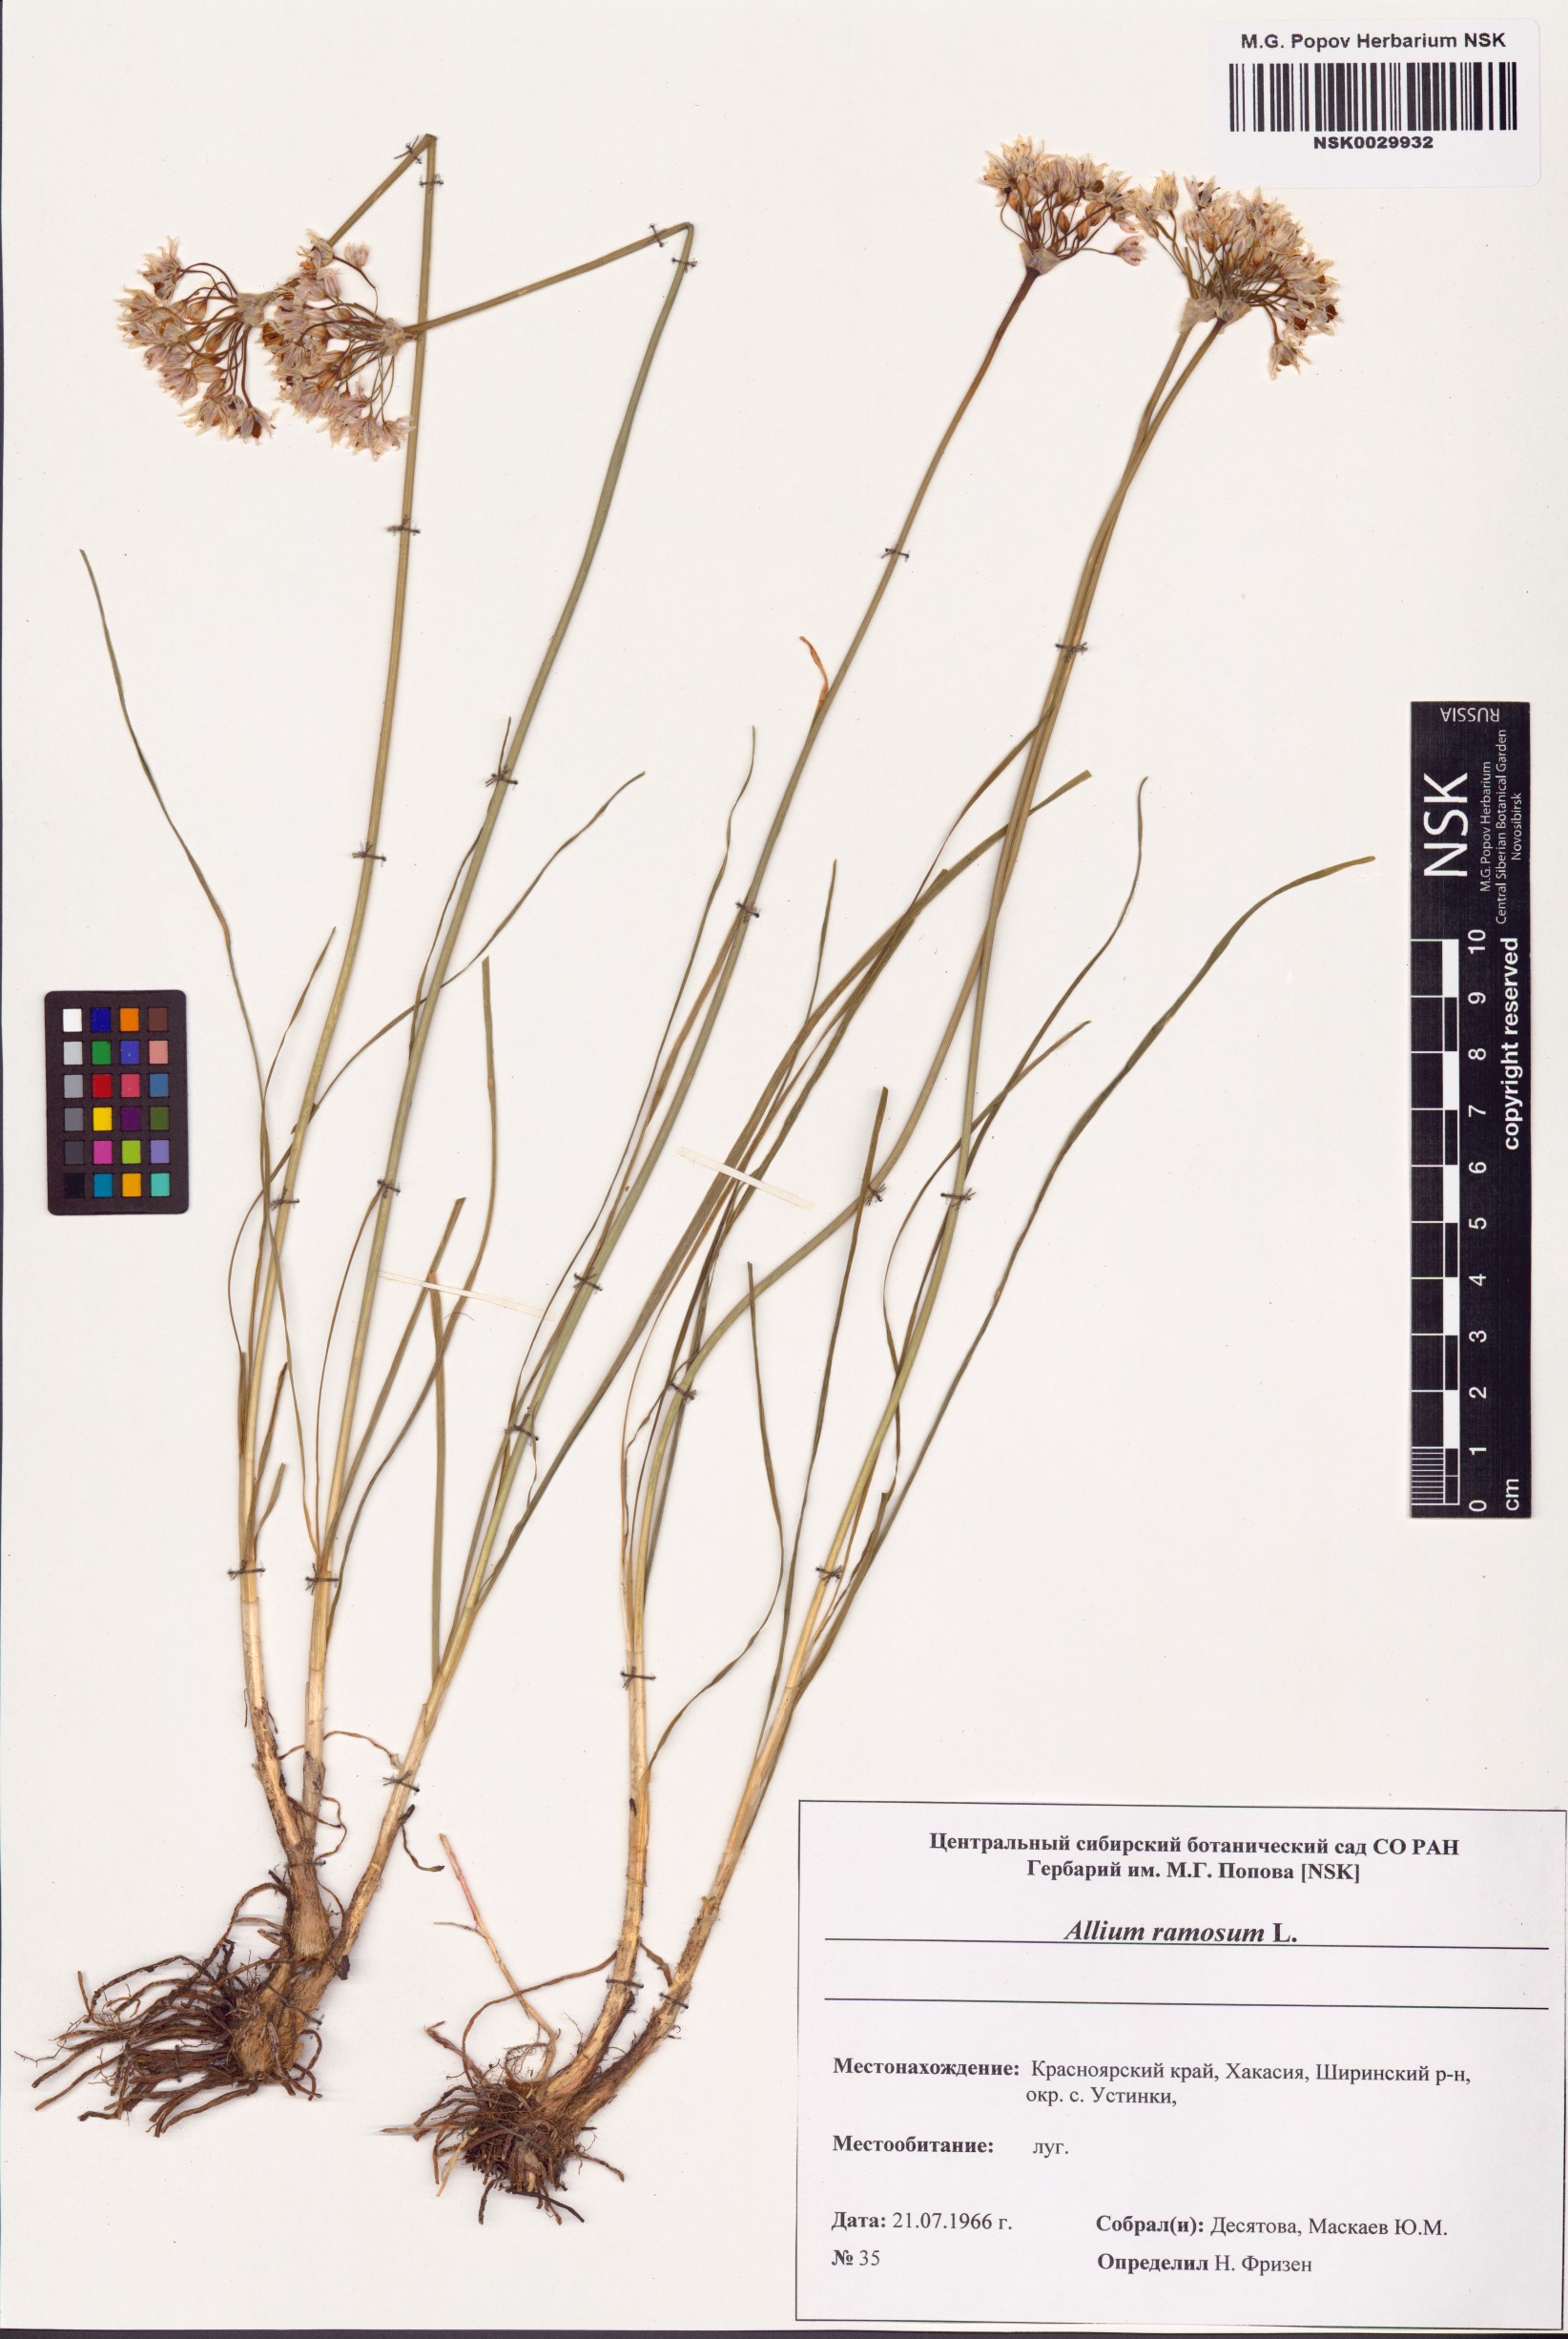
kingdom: Plantae
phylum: Tracheophyta
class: Liliopsida
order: Asparagales
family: Amaryllidaceae
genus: Allium
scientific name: Allium ramosum
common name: Fragrant garlic
